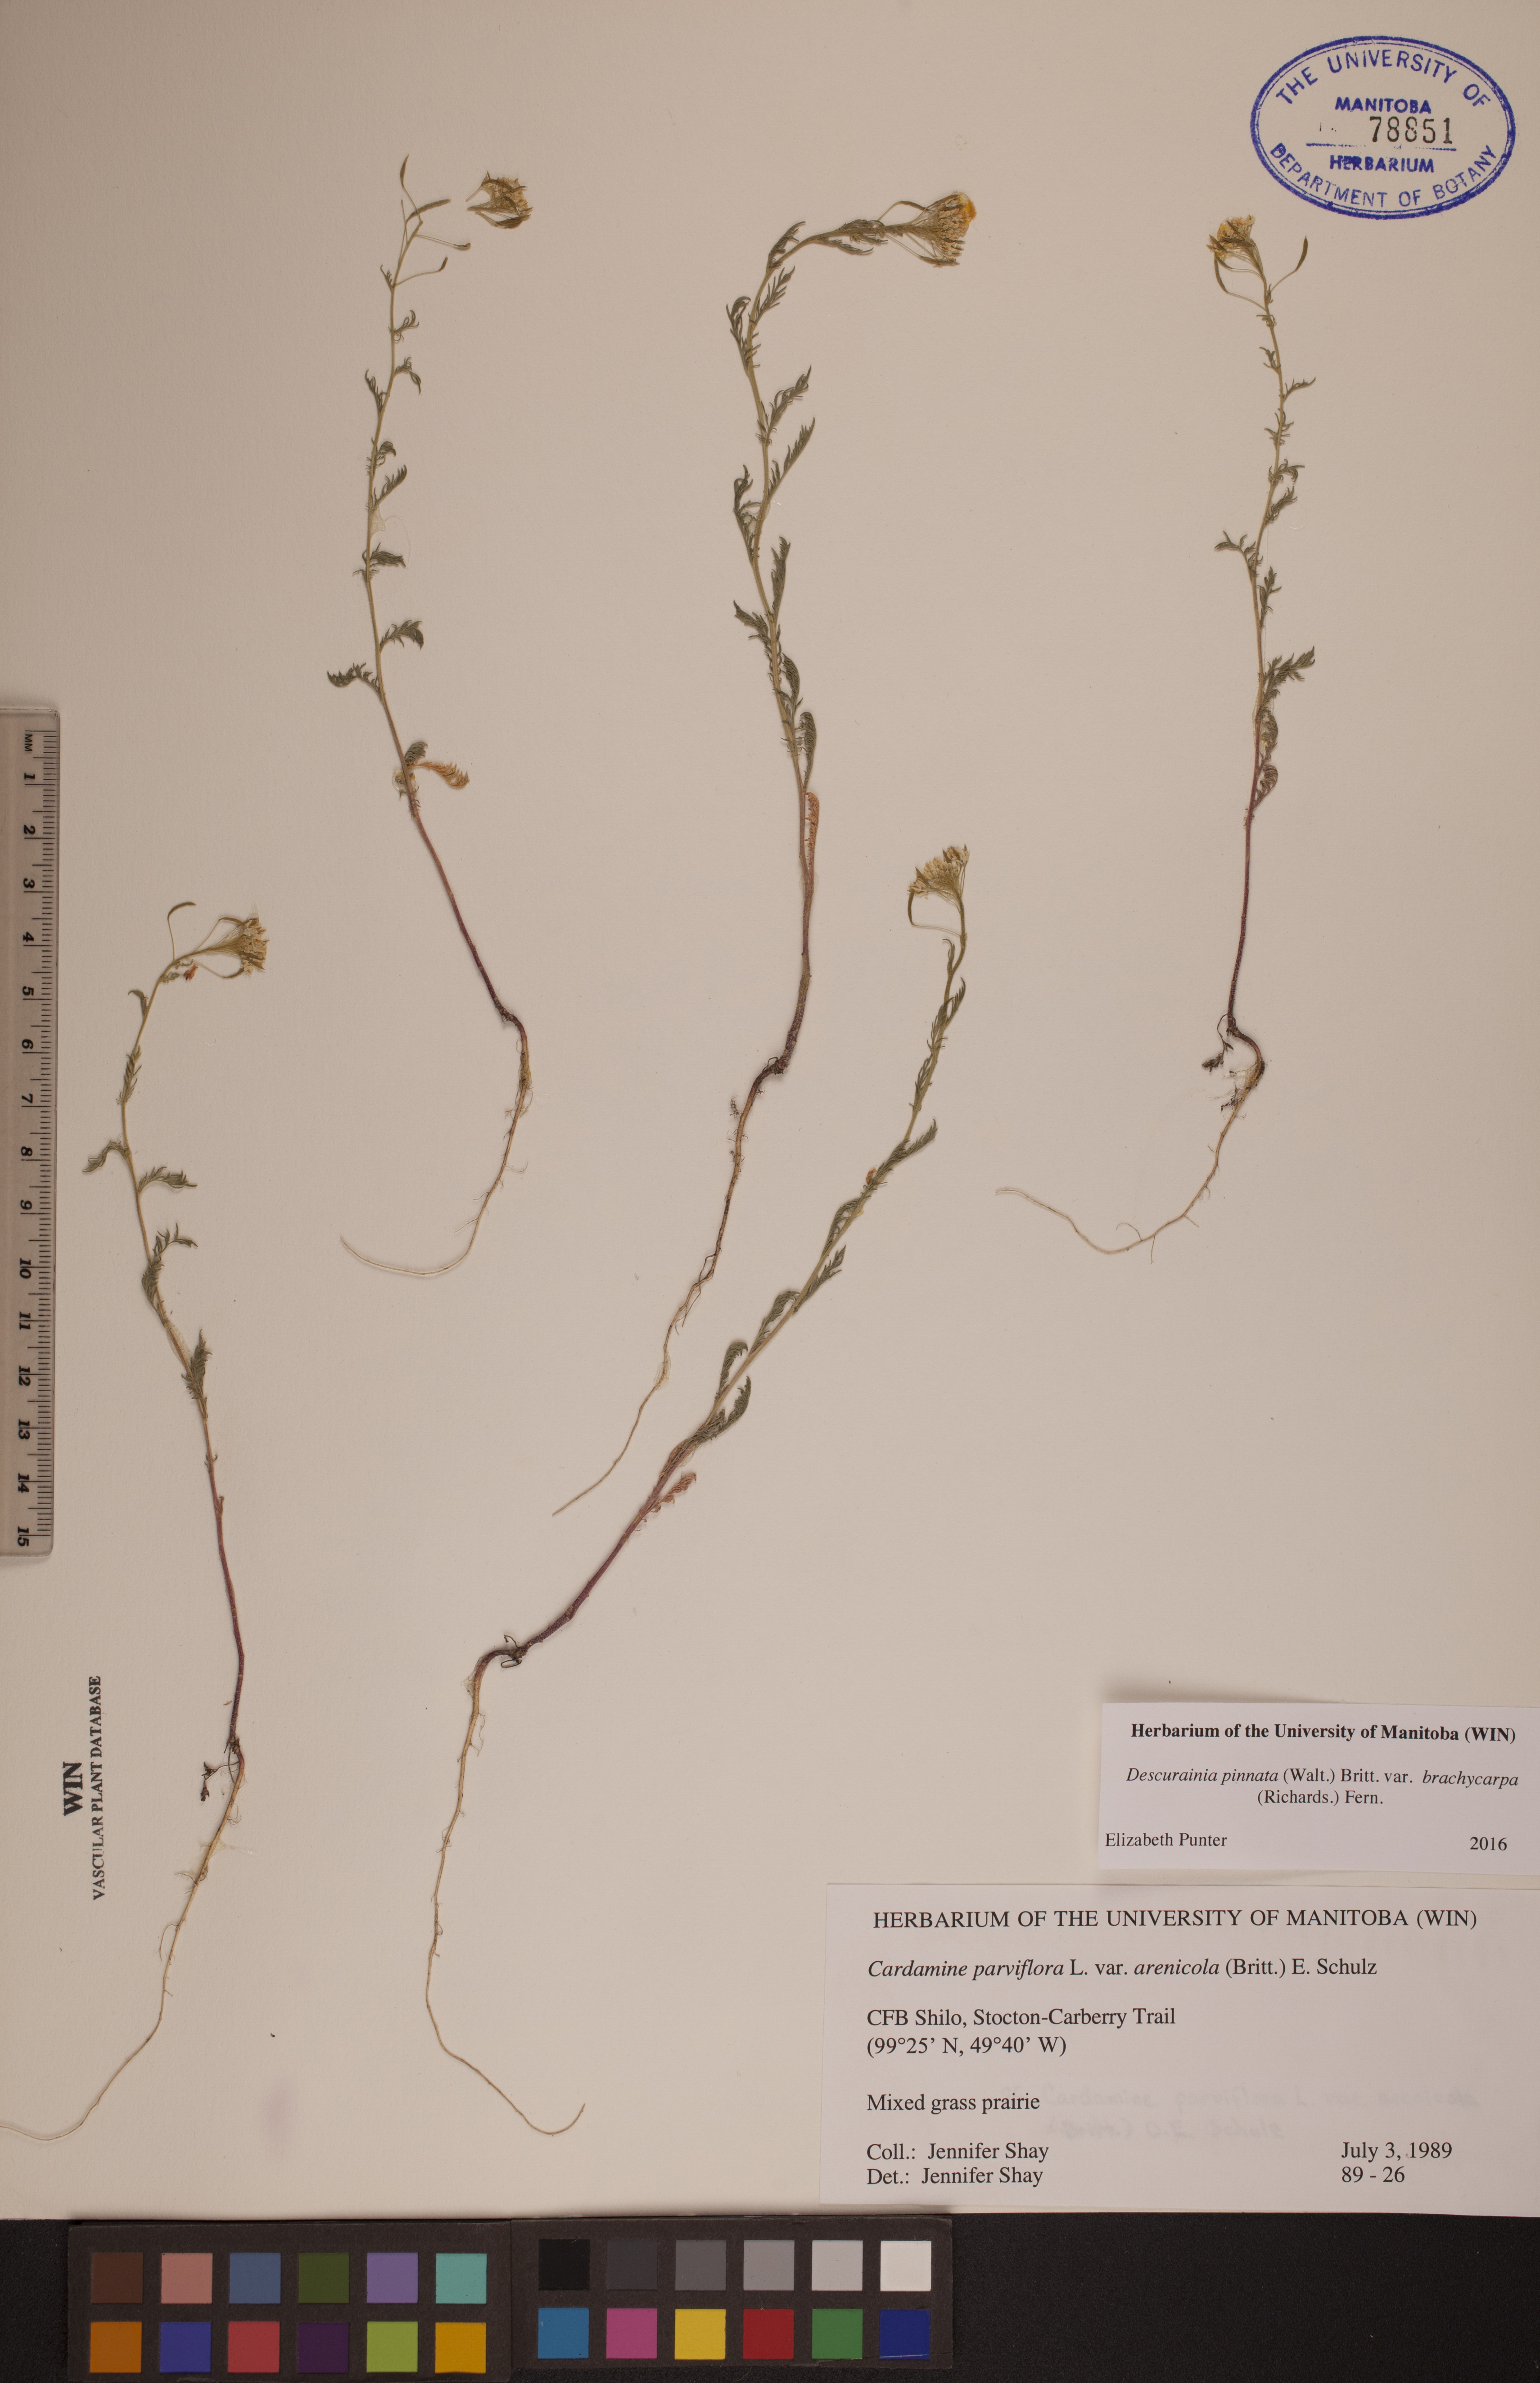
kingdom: Plantae
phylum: Tracheophyta
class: Magnoliopsida
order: Brassicales
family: Brassicaceae
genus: Descurainia
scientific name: Descurainia pinnata
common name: Western tansy mustard
